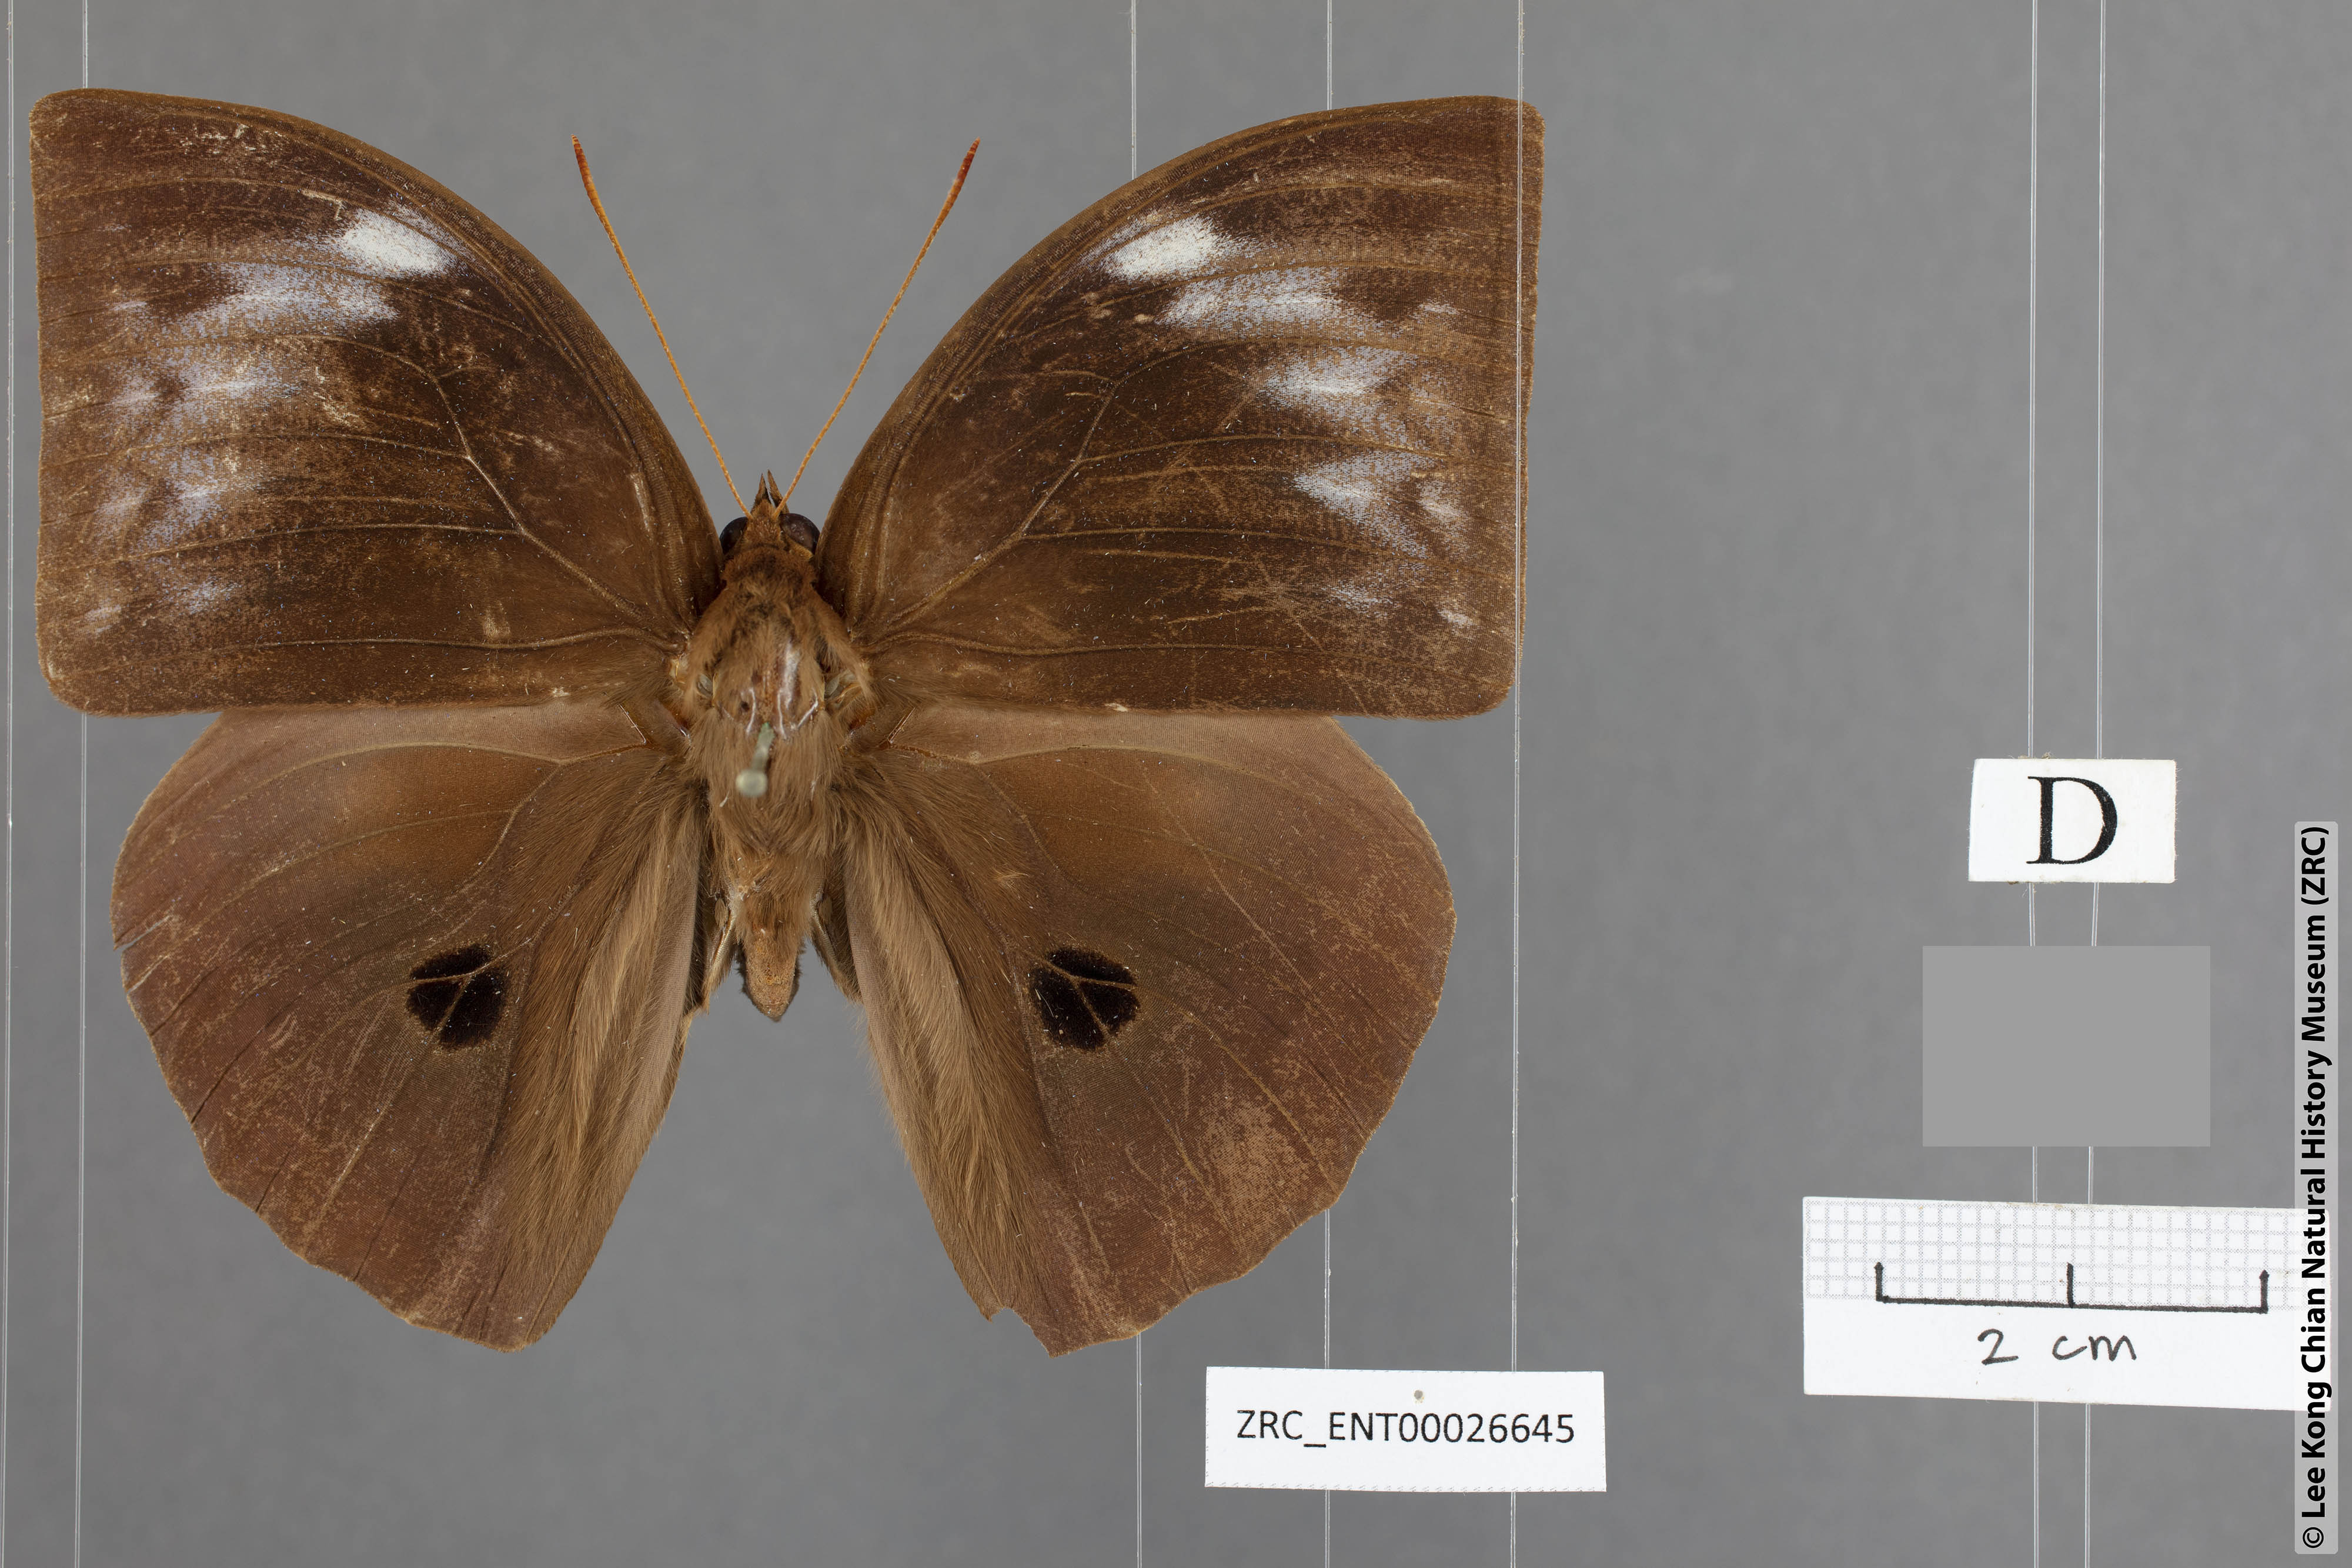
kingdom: Animalia
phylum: Arthropoda
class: Insecta
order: Lepidoptera
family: Nymphalidae
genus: Discophora
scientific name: Discophora necho
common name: Blue duffer
